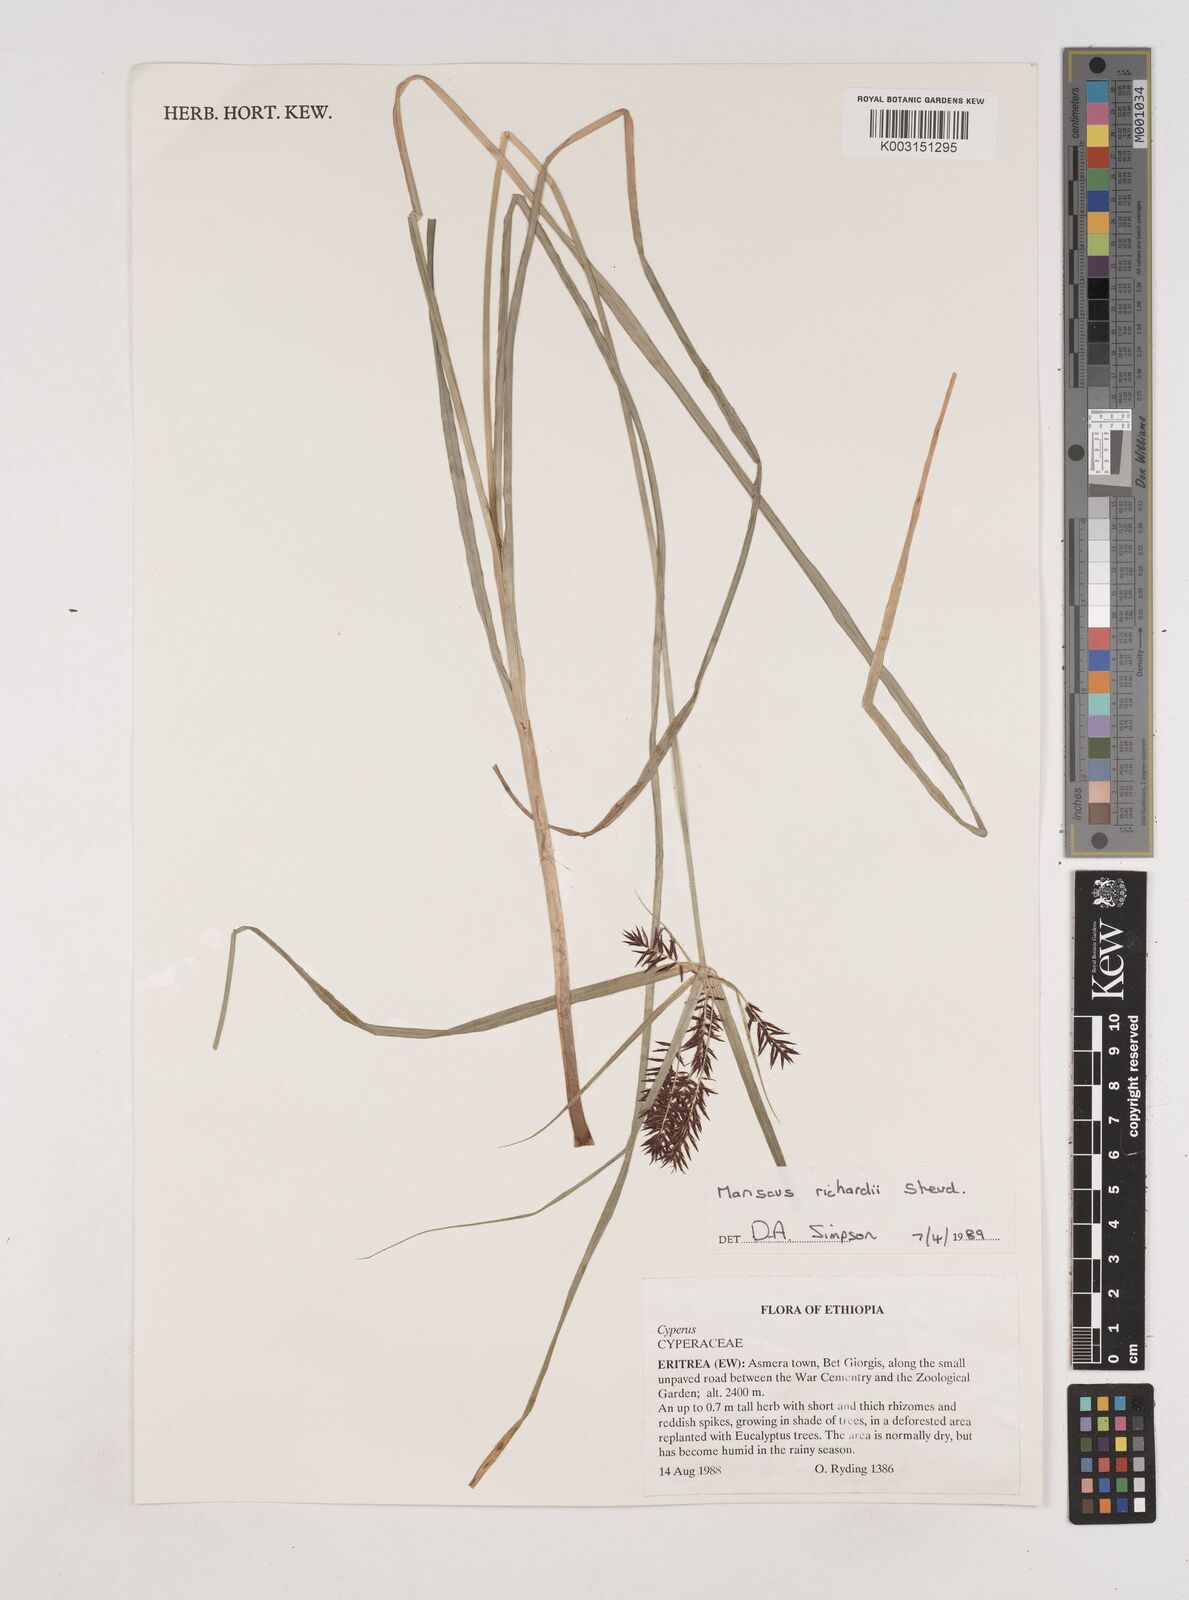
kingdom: Plantae
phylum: Tracheophyta
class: Liliopsida
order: Poales
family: Cyperaceae
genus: Cyperus
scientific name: Cyperus impubes
